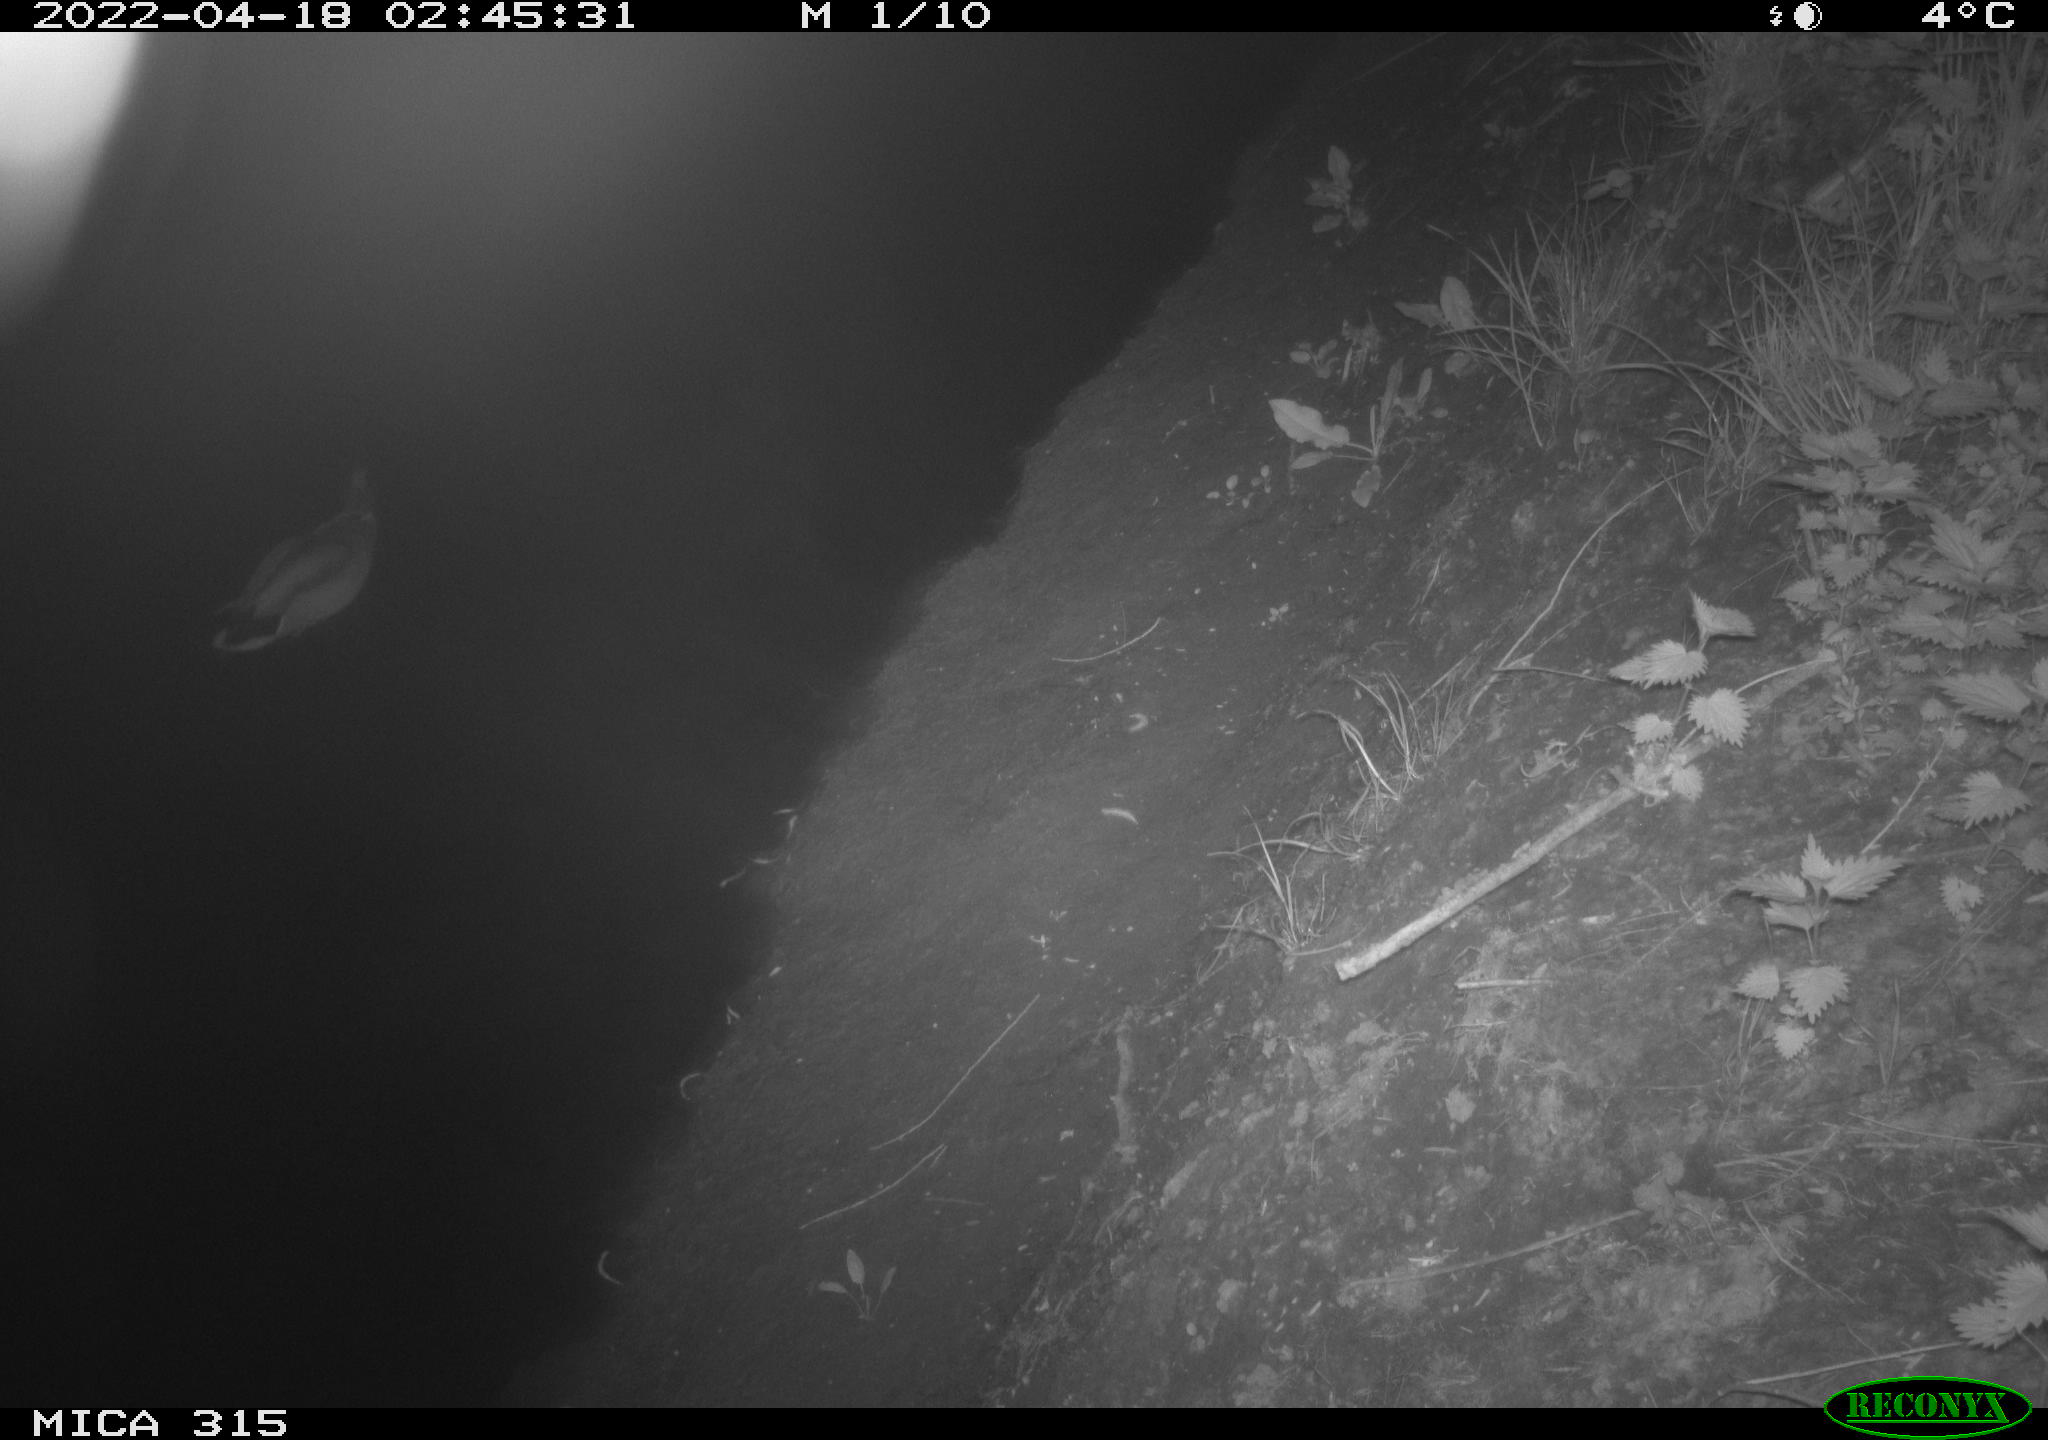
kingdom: Animalia
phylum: Chordata
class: Aves
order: Anseriformes
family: Anatidae
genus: Anas
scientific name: Anas platyrhynchos
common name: Mallard
